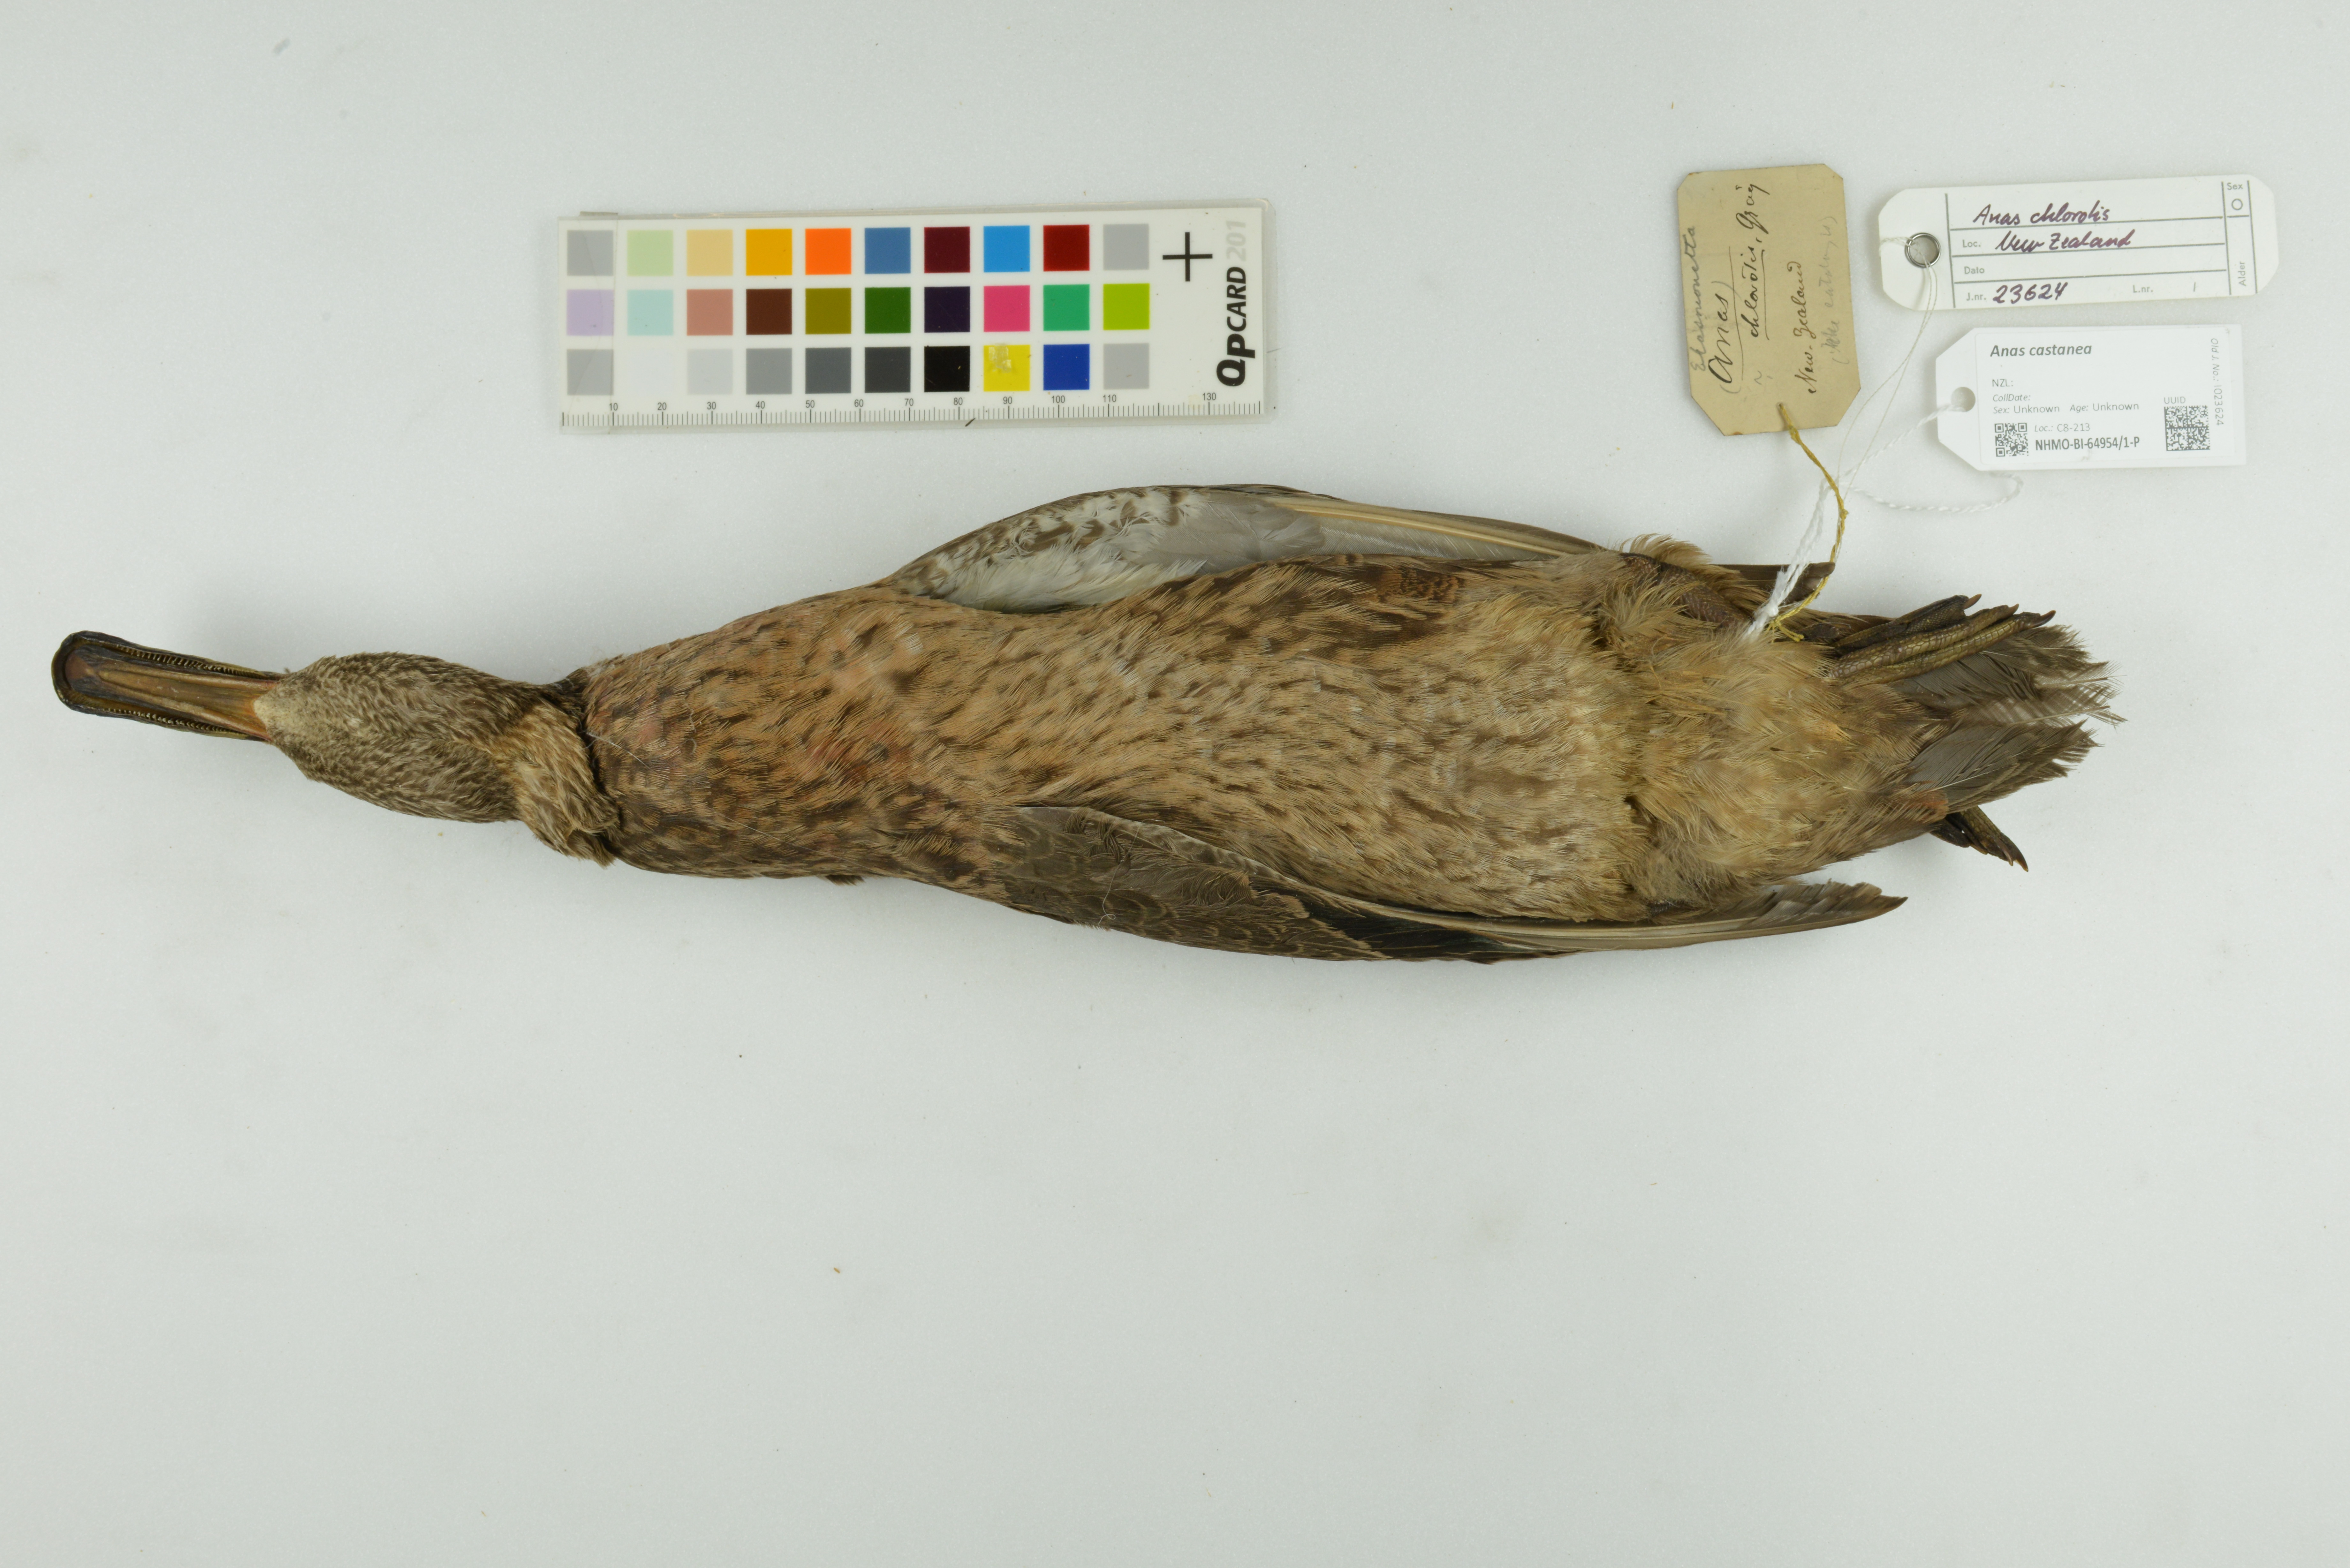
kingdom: Animalia
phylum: Chordata
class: Aves
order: Anseriformes
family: Anatidae
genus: Anas
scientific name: Anas castanea
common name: Chestnut teal
